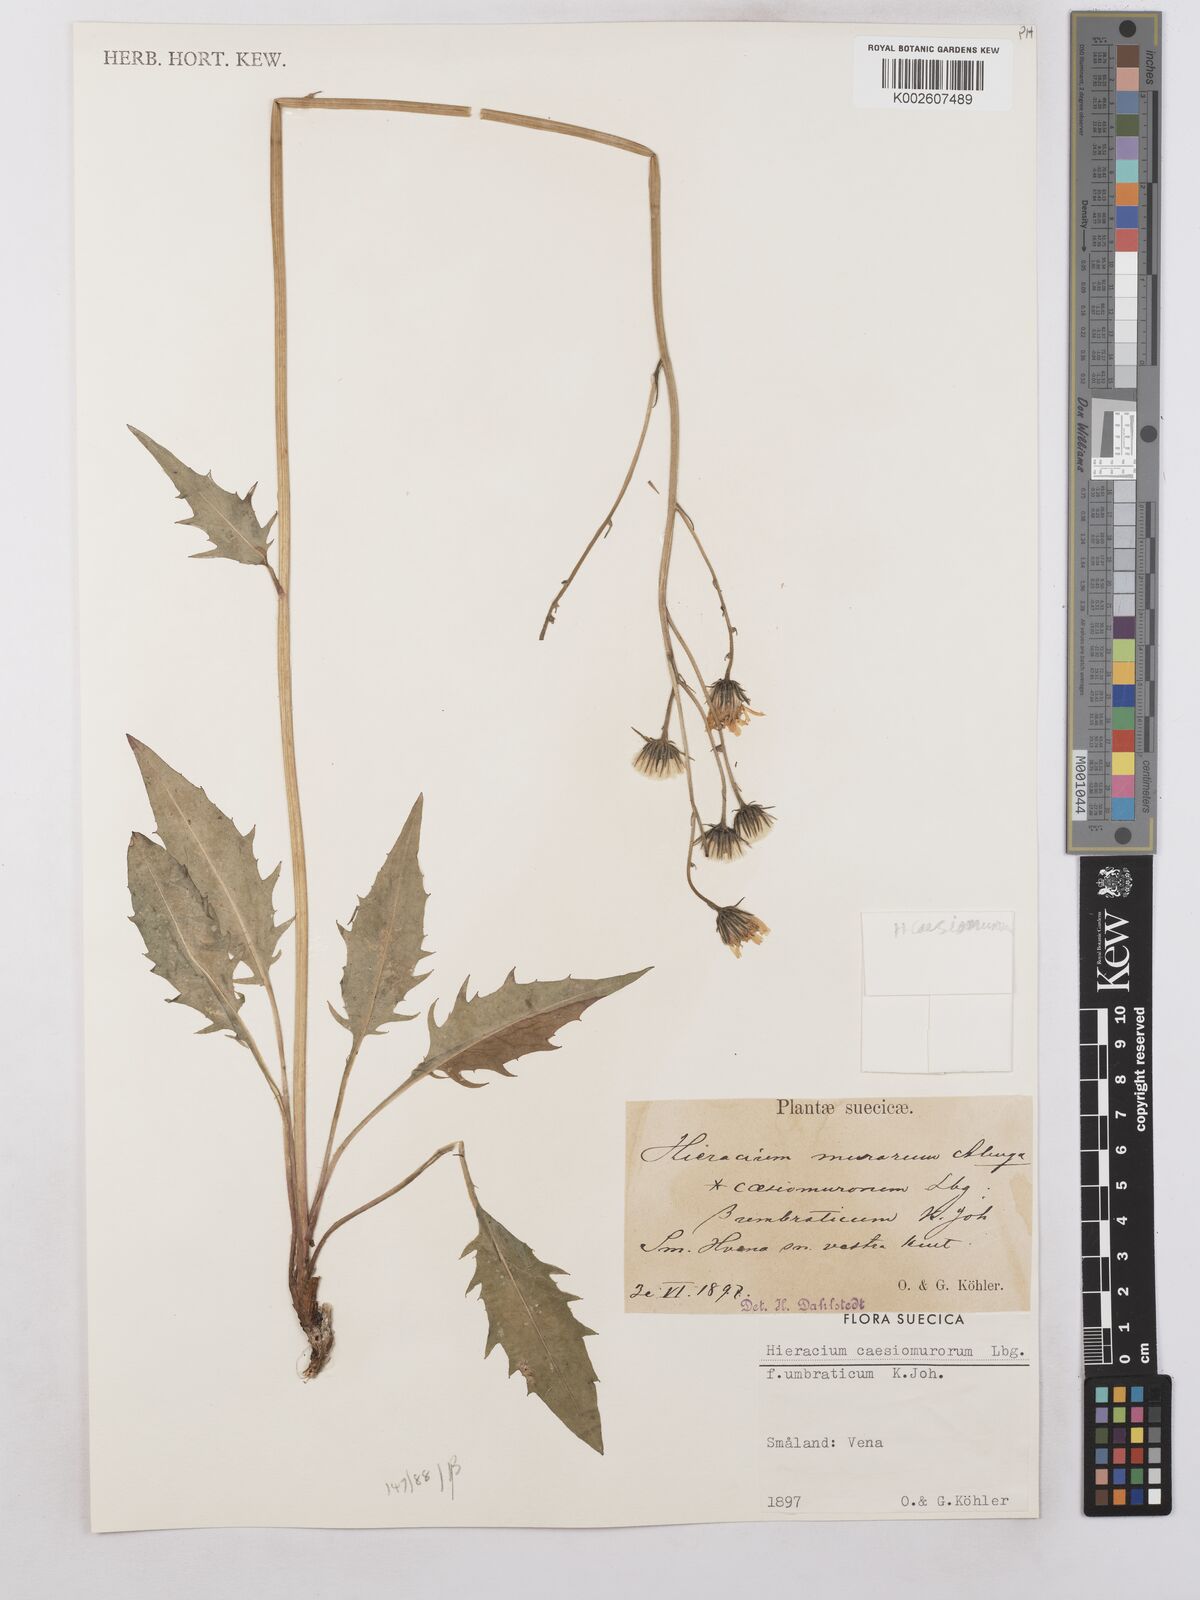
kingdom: Plantae
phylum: Tracheophyta
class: Magnoliopsida
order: Asterales
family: Asteraceae
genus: Hieracium
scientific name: Hieracium caesium
